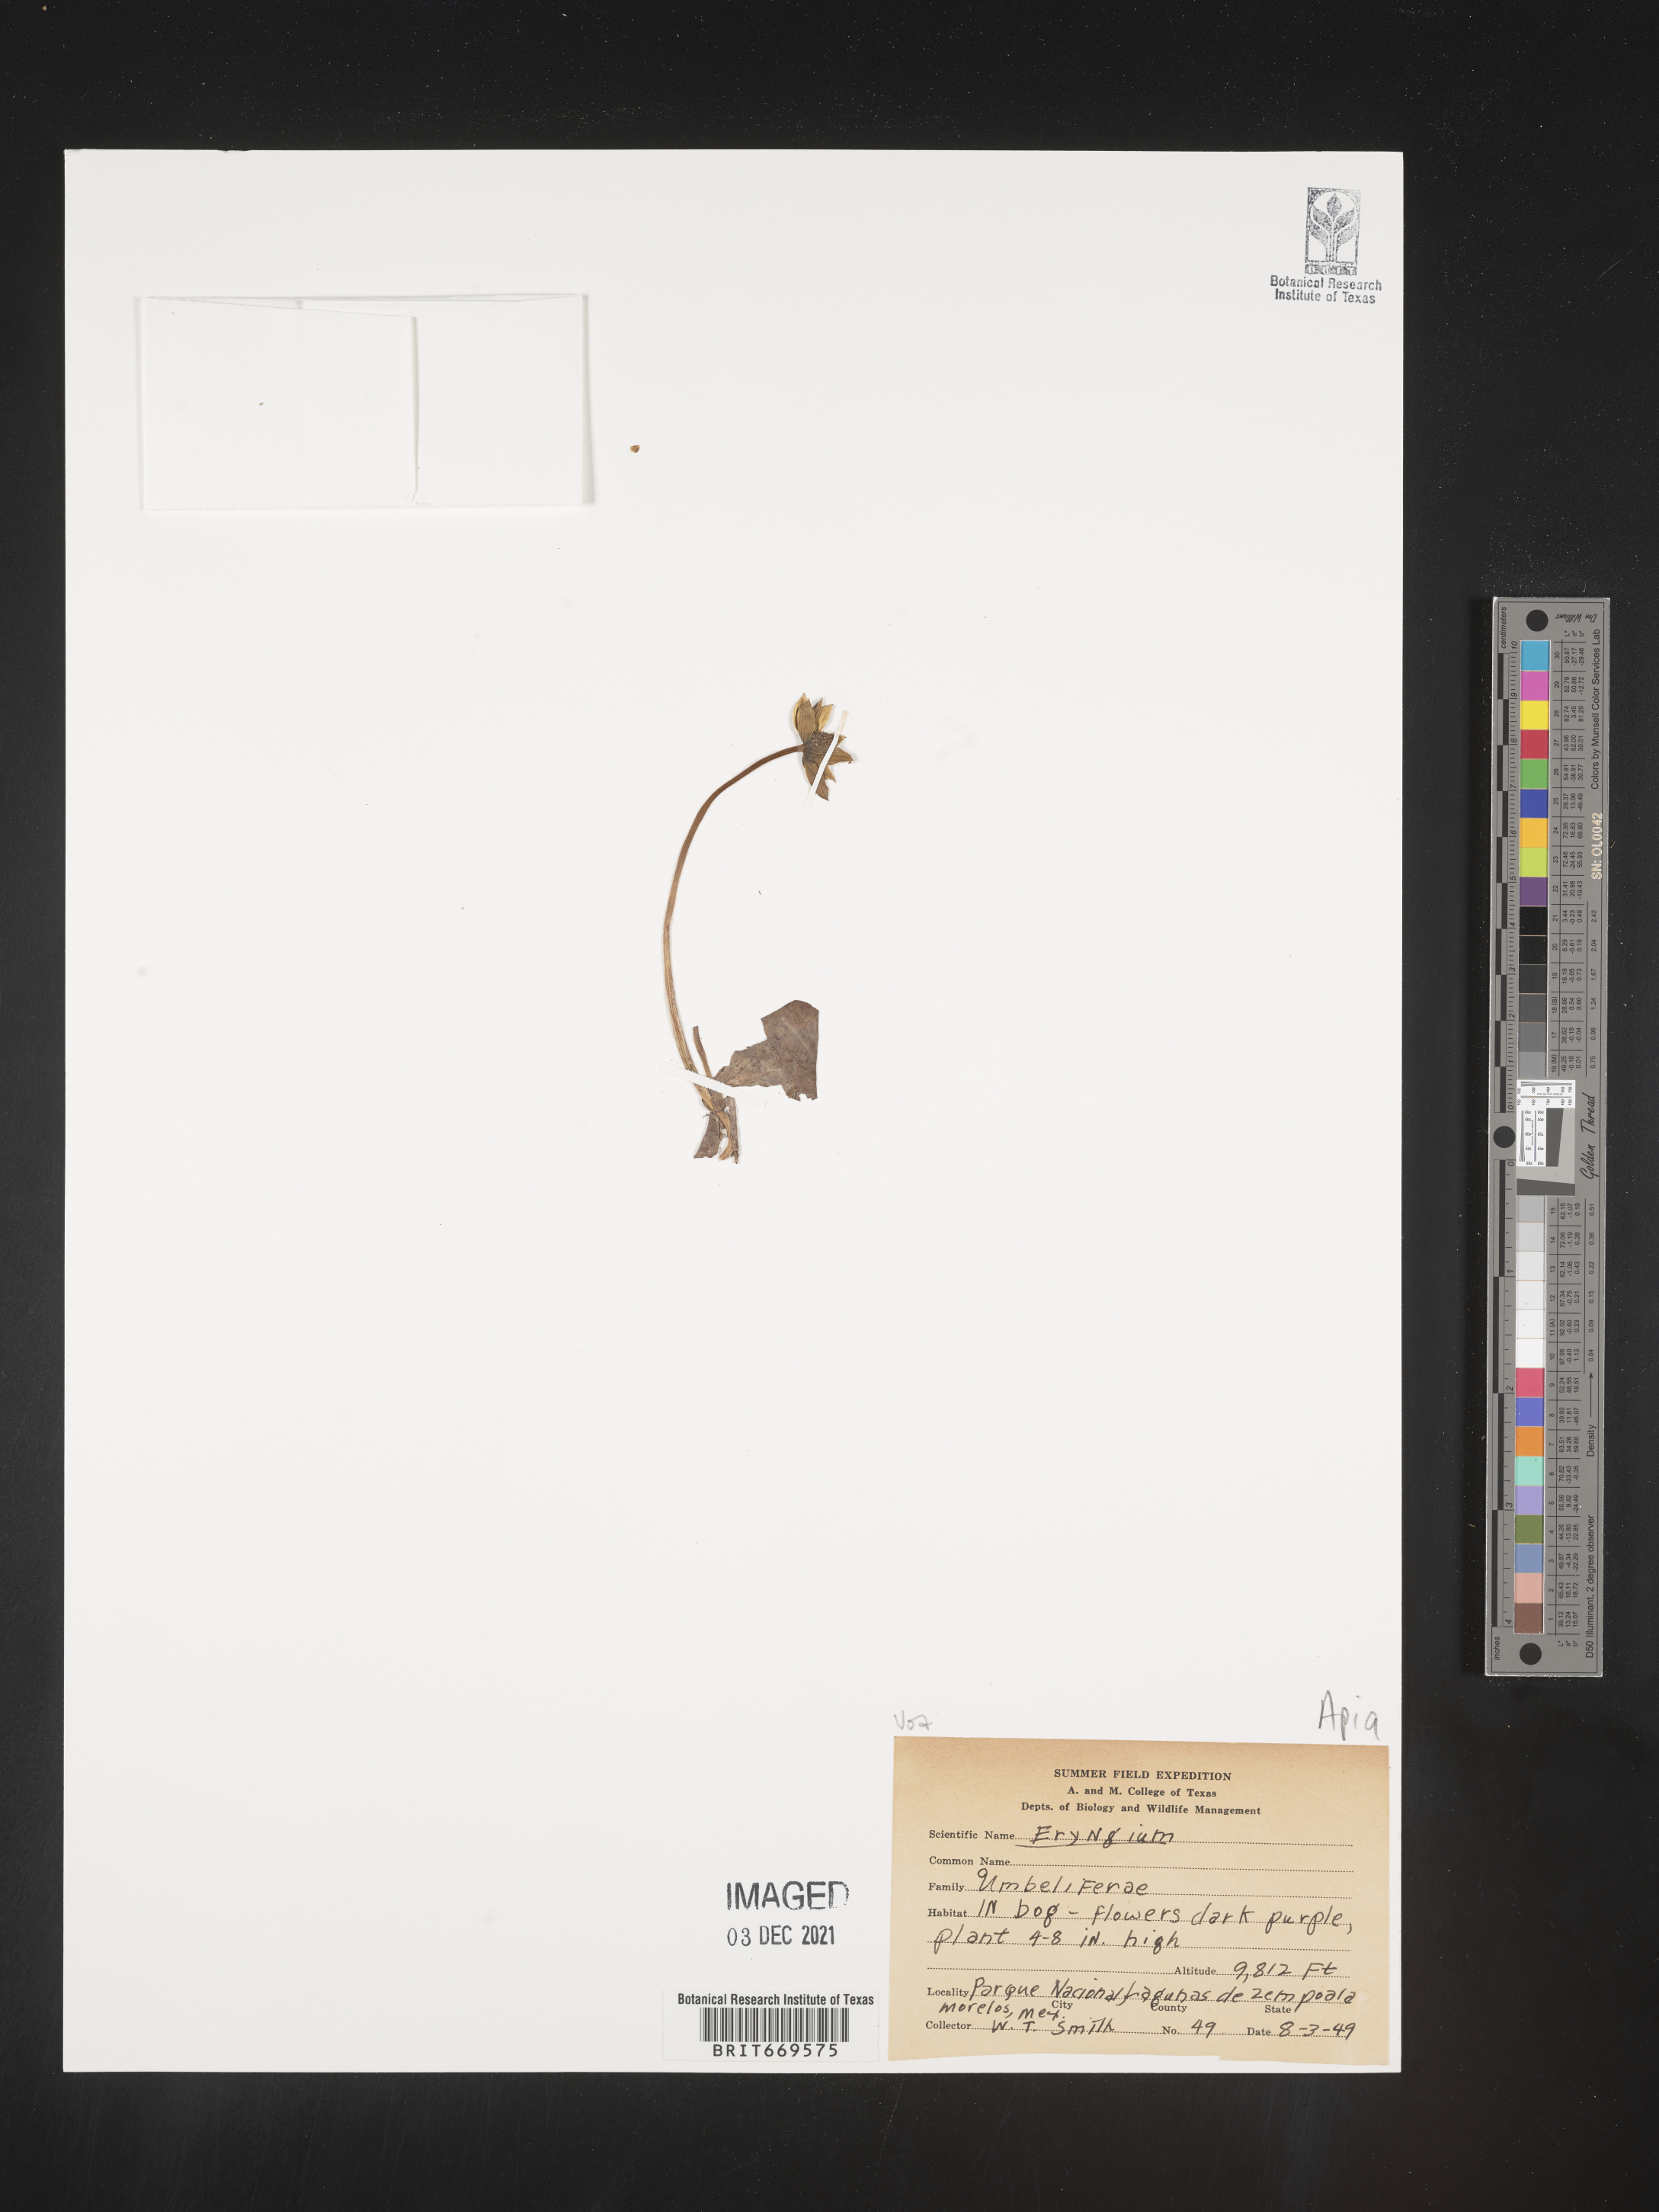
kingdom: Plantae
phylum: Tracheophyta
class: Magnoliopsida
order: Apiales
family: Apiaceae
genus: Eryngium
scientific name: Eryngium
